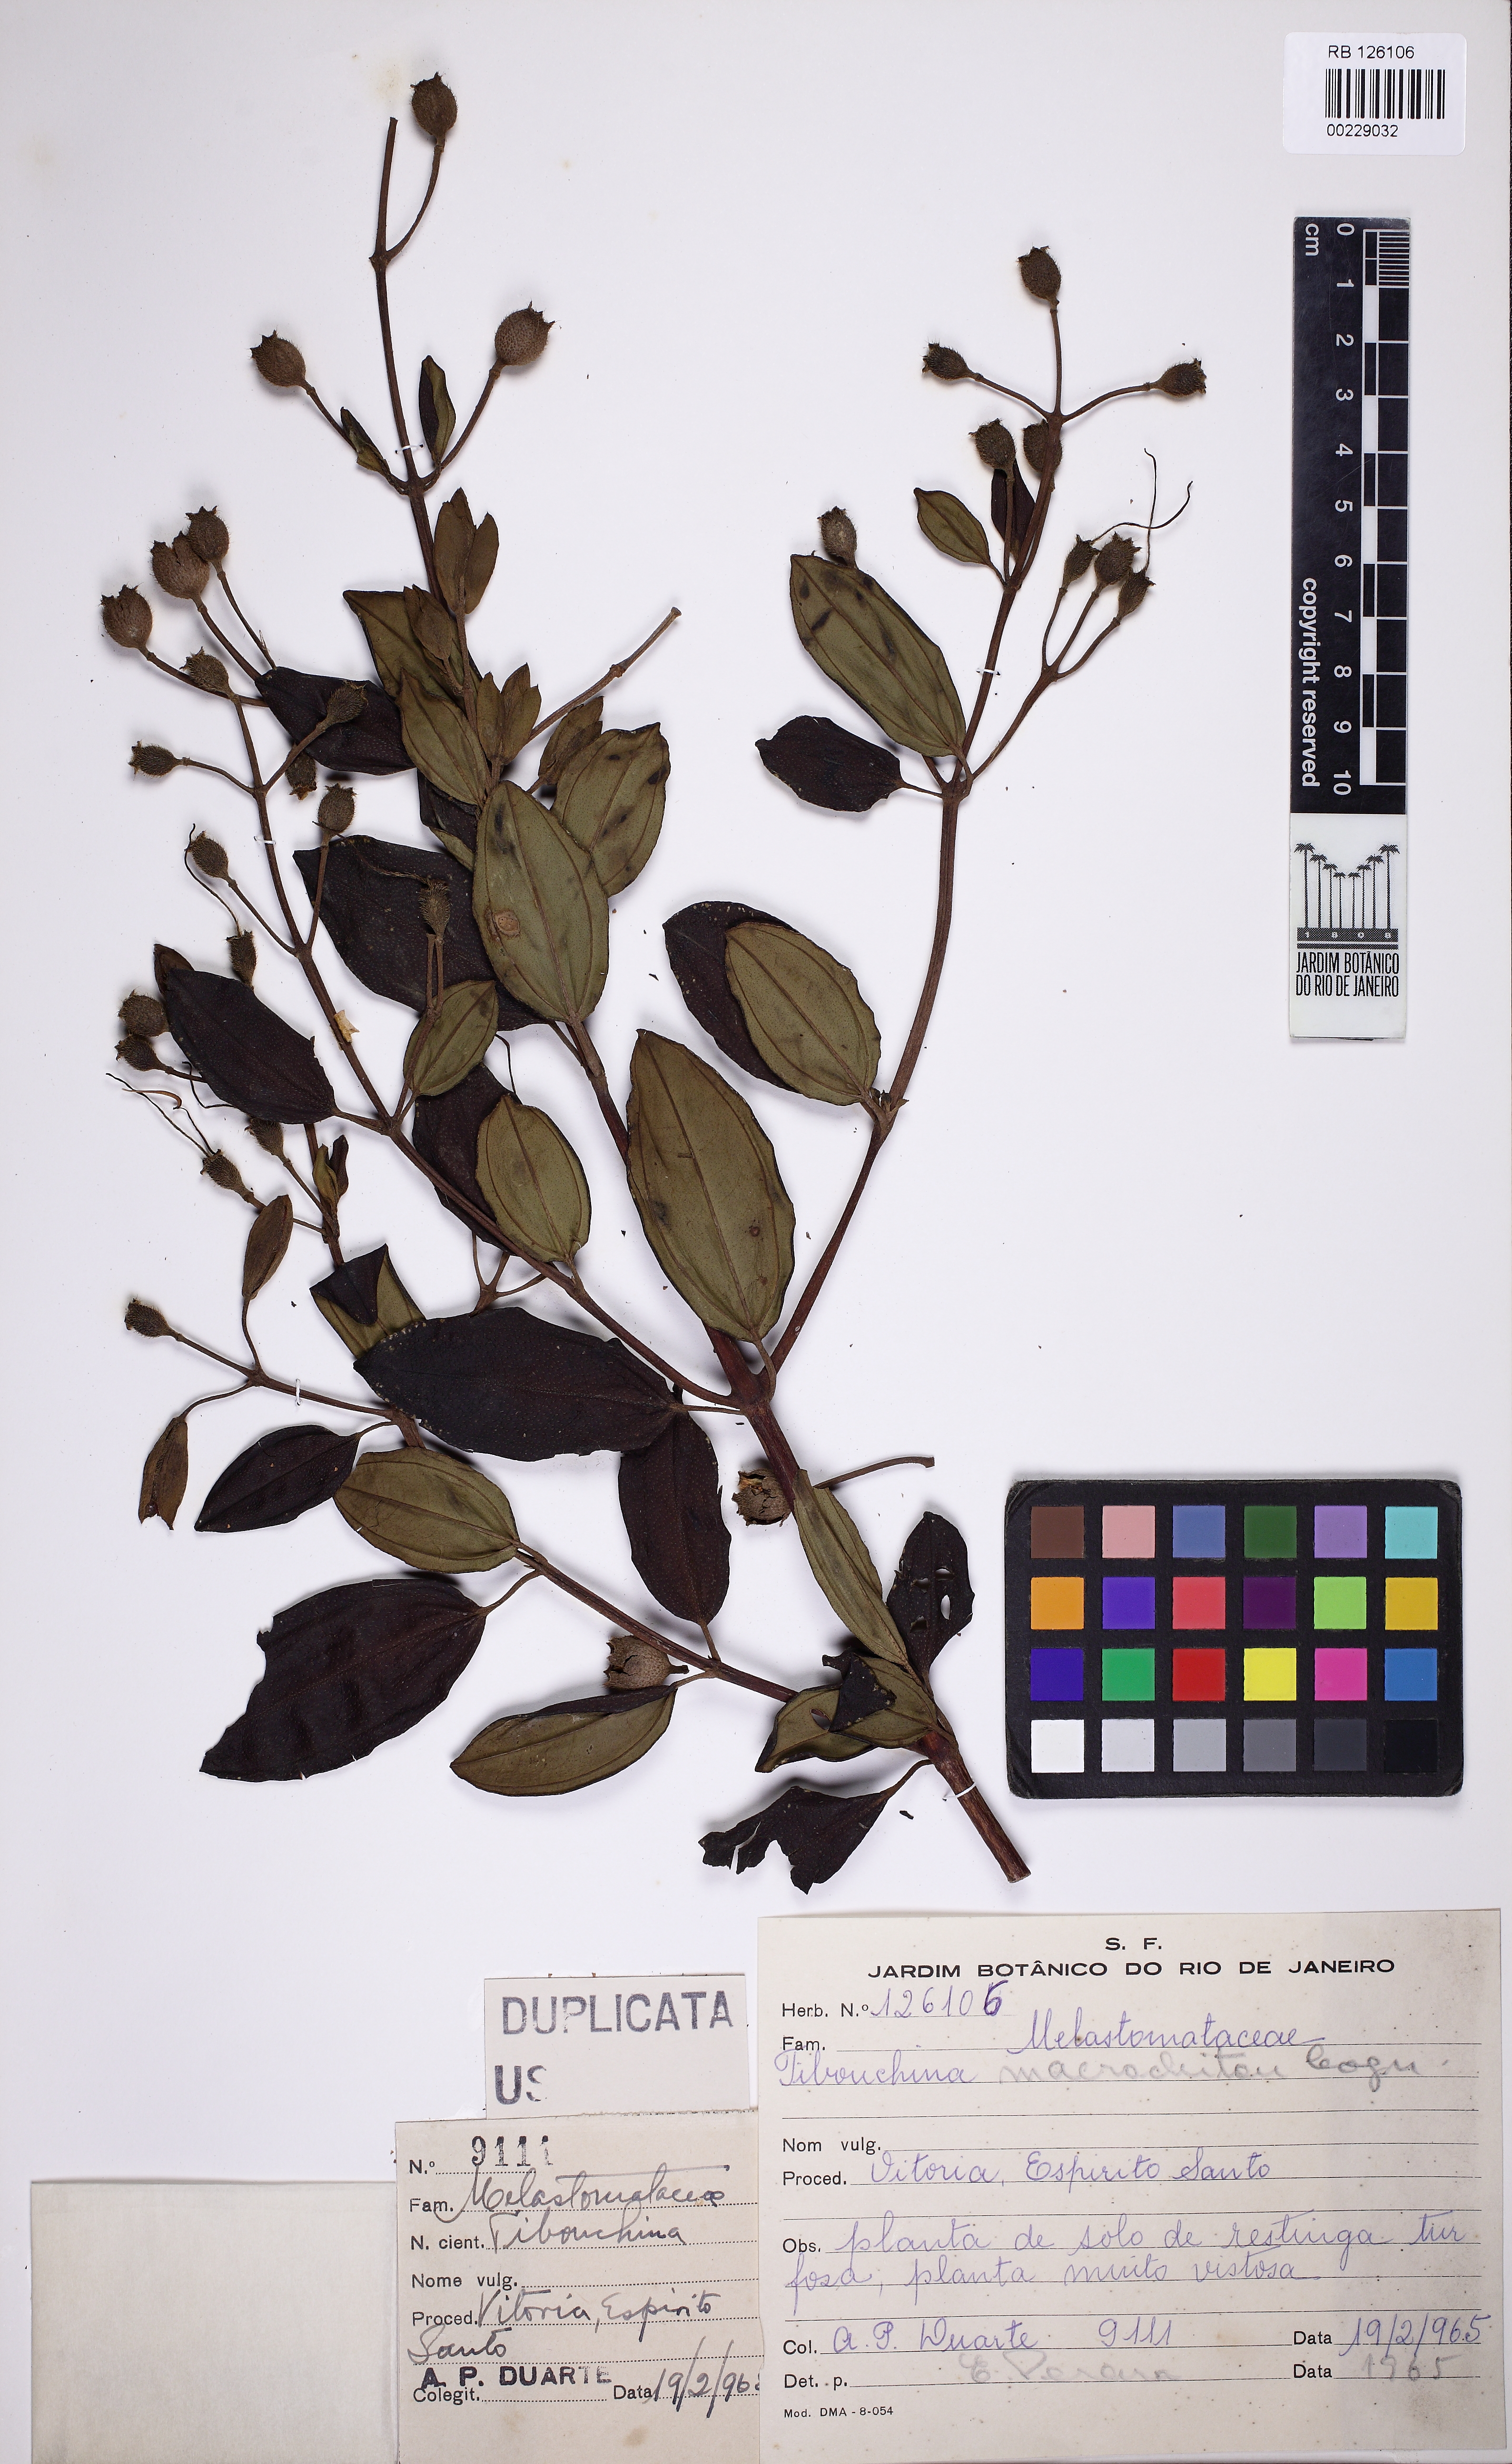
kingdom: Plantae
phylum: Tracheophyta
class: Magnoliopsida
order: Myrtales
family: Melastomataceae
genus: Pleroma
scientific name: Pleroma martiusianum
